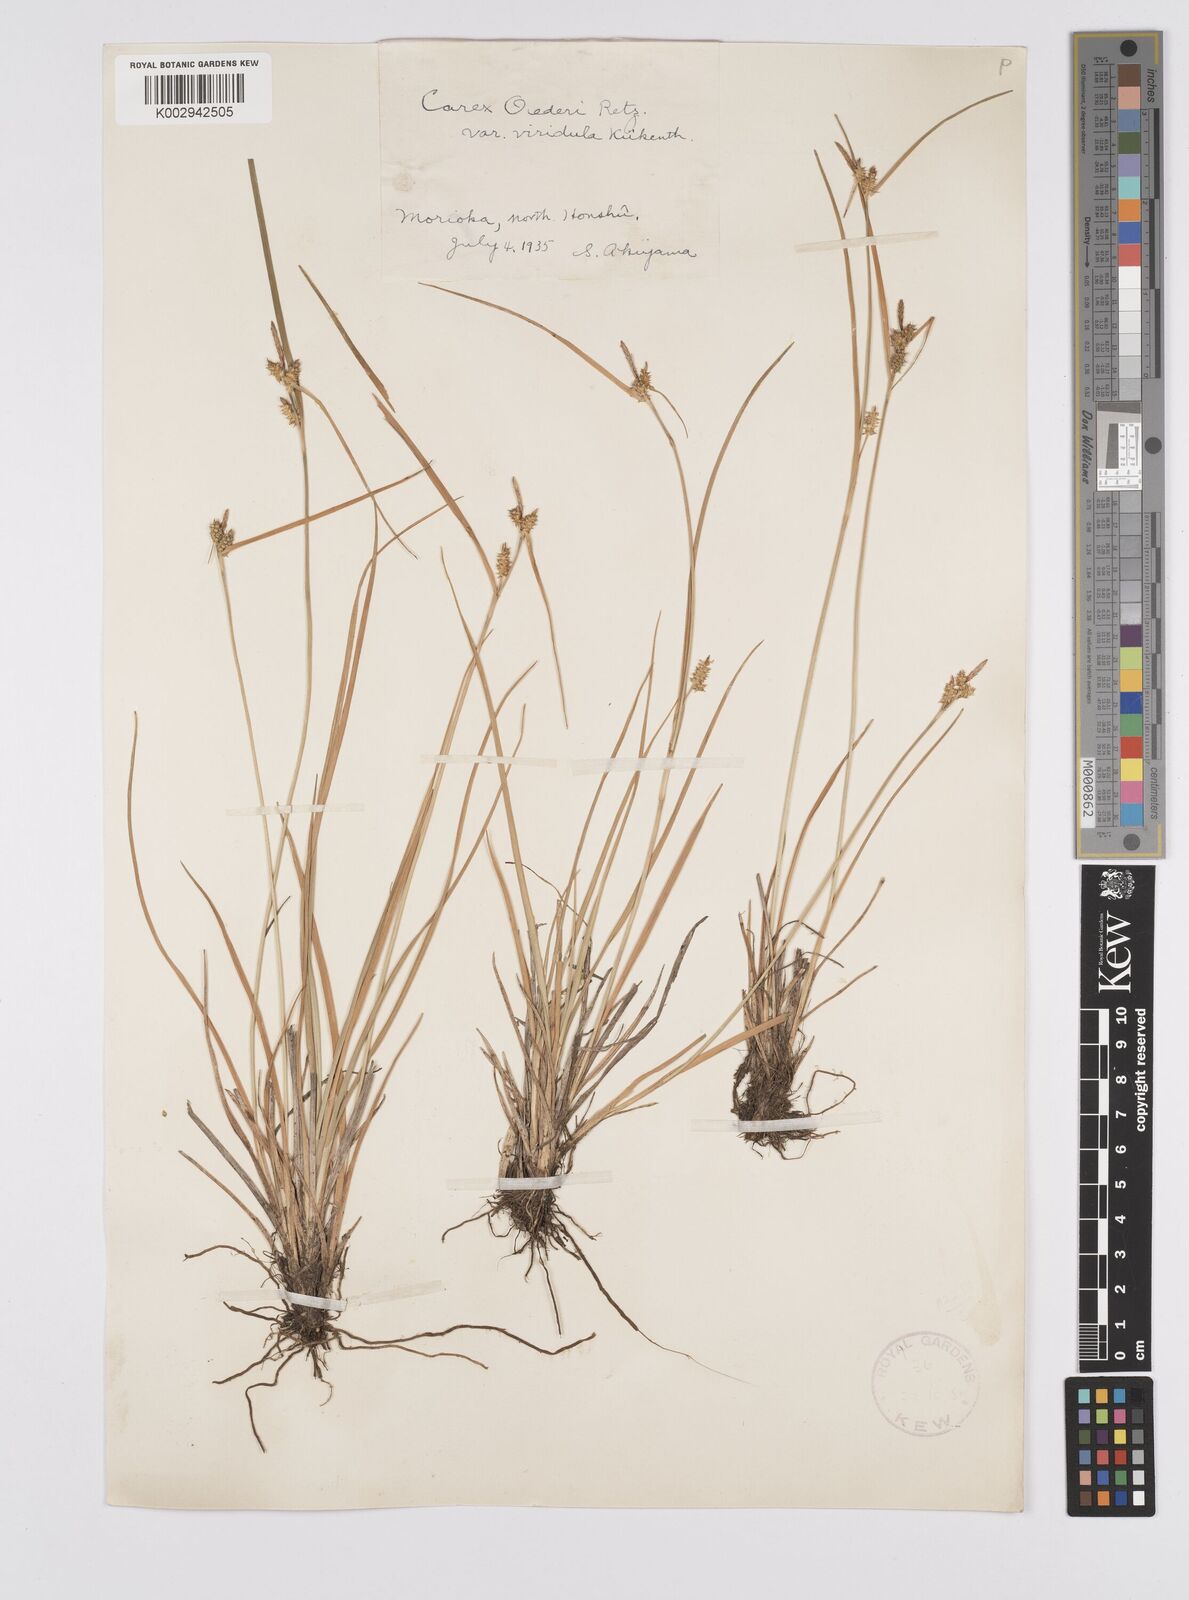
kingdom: Plantae
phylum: Tracheophyta
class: Liliopsida
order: Poales
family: Cyperaceae
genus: Carex
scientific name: Carex oederi
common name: Common & small-fruited yellow-sedge
